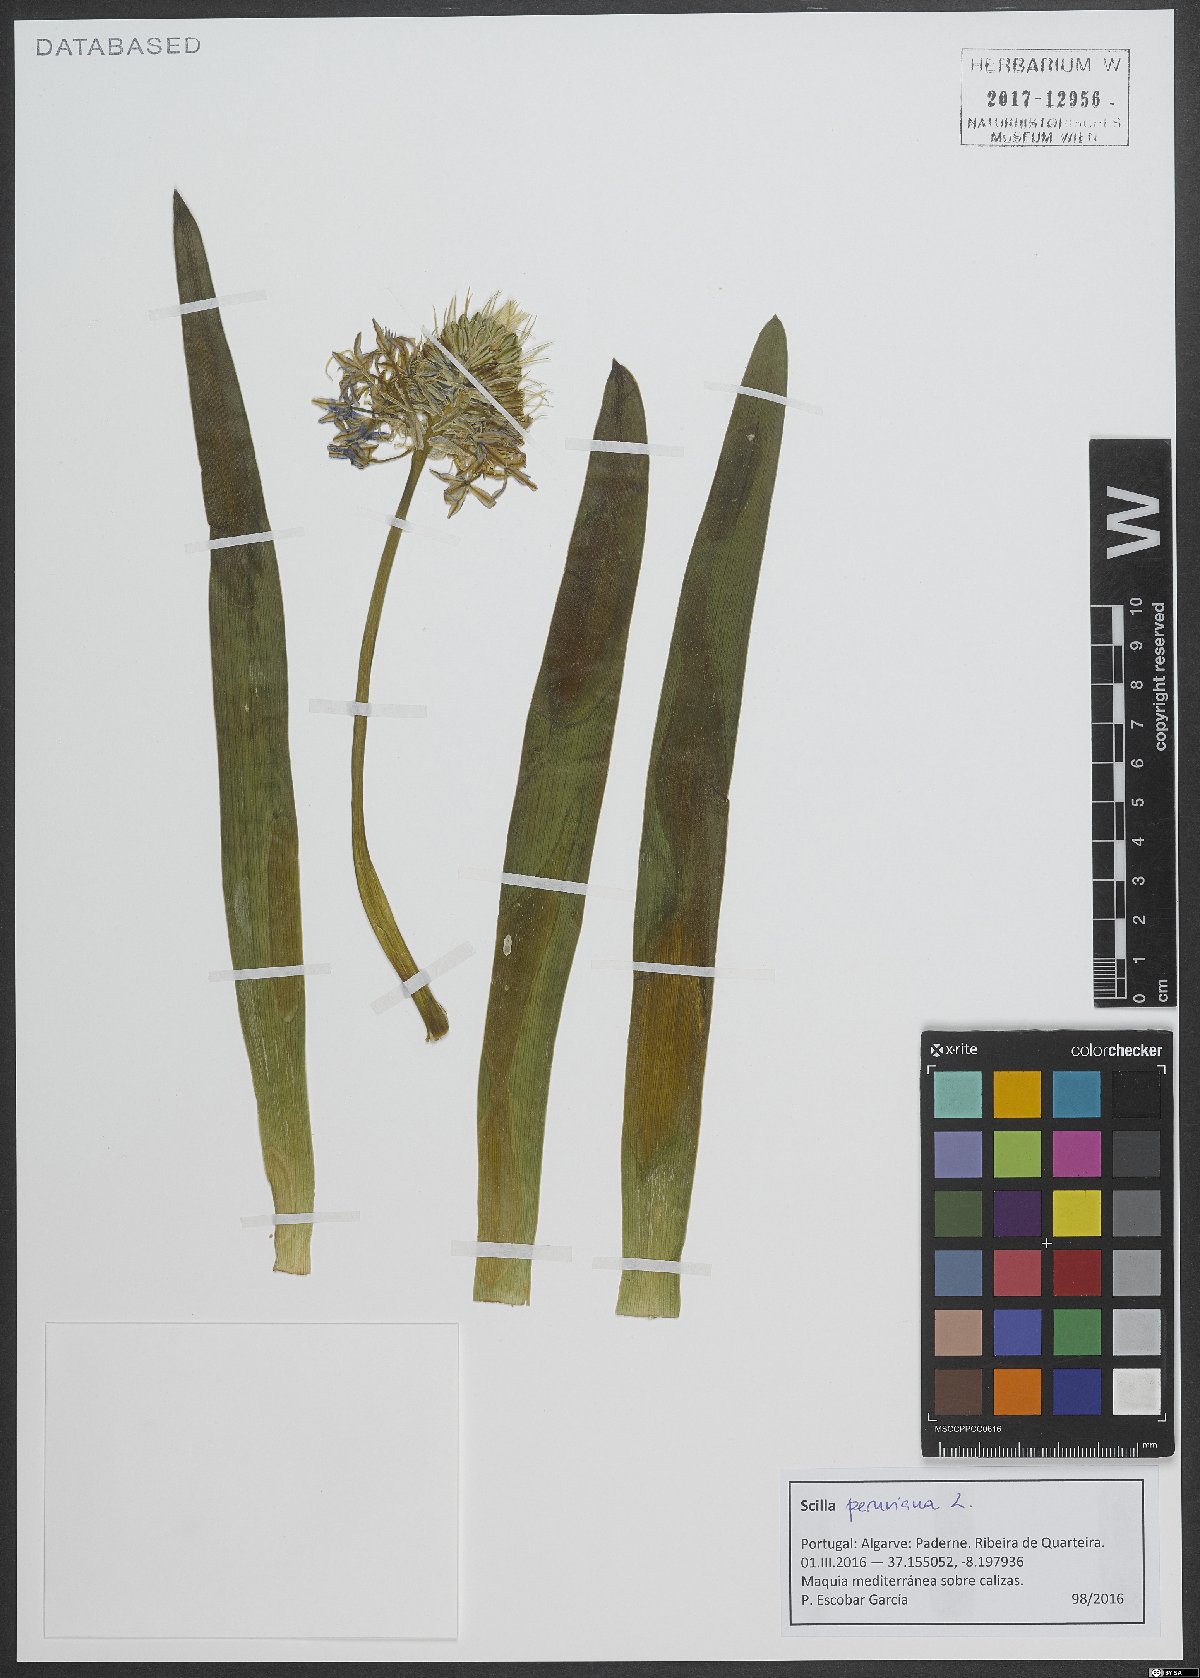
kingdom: Plantae
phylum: Tracheophyta
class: Liliopsida
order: Asparagales
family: Asparagaceae
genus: Scilla
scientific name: Scilla peruviana
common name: Portuguese squill
